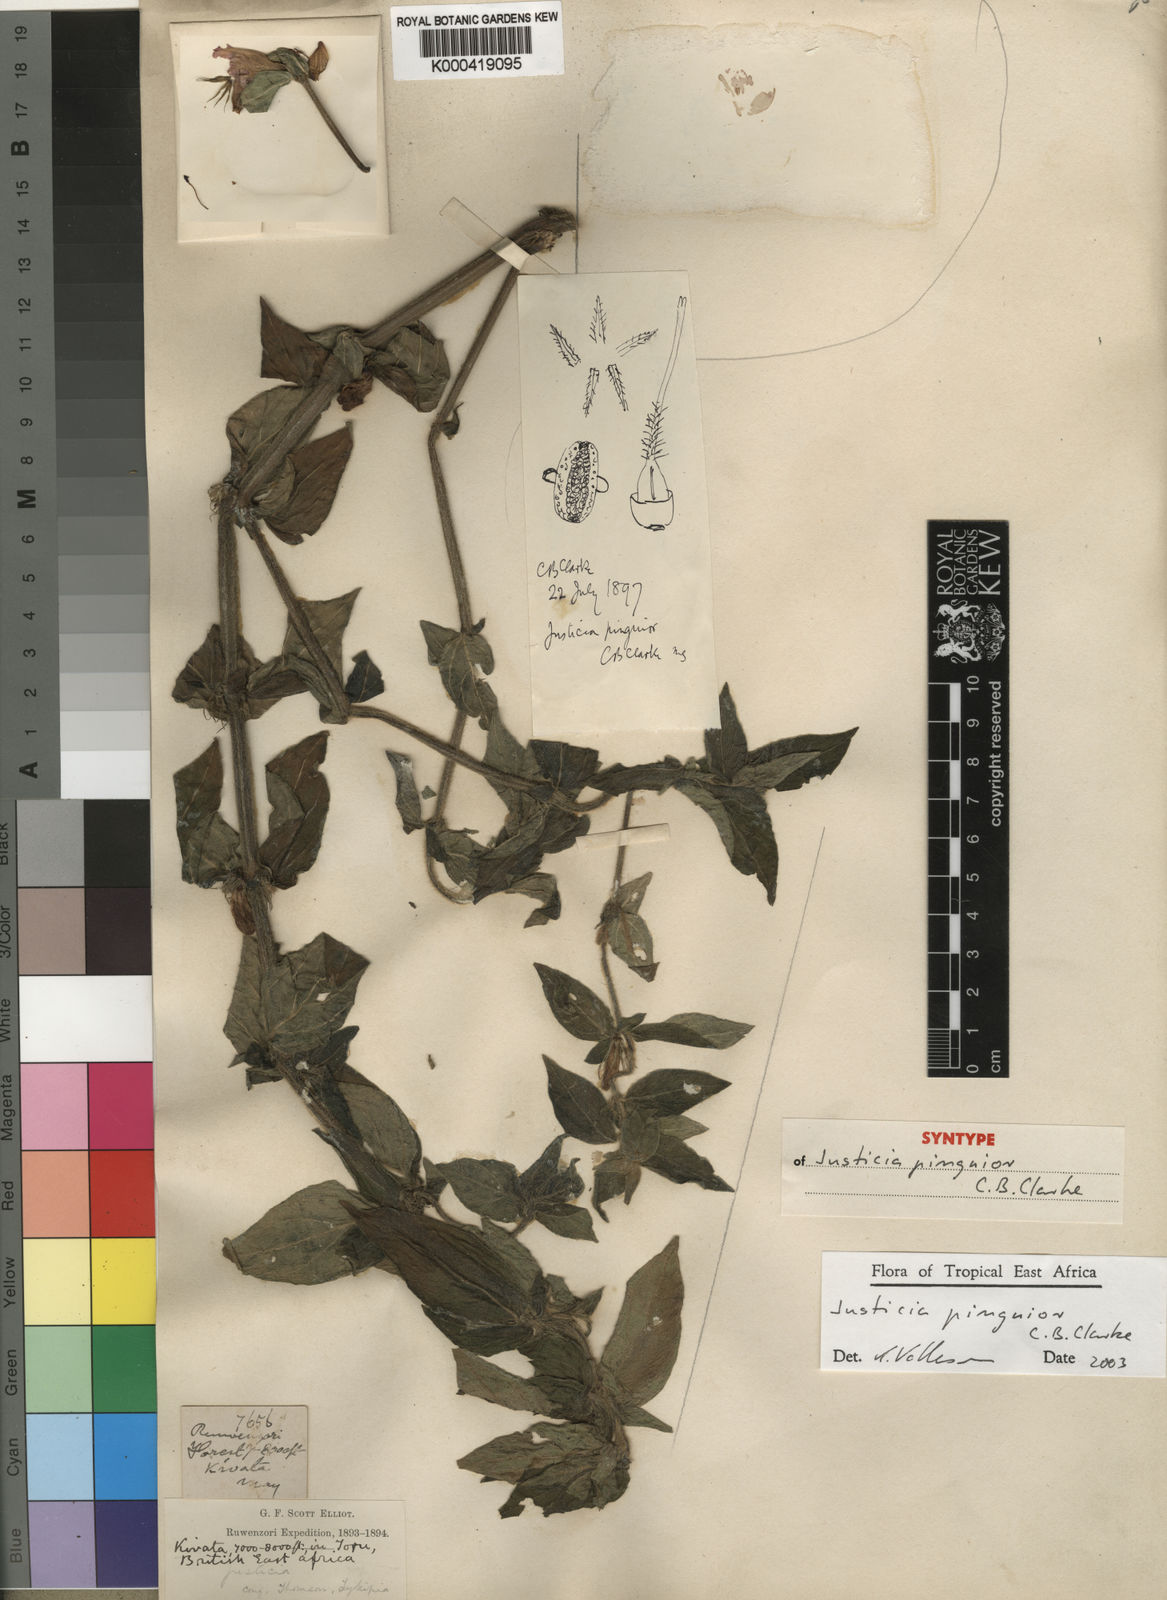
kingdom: Plantae
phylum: Tracheophyta
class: Magnoliopsida
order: Lamiales
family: Acanthaceae
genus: Justicia
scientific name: Justicia pinguior
